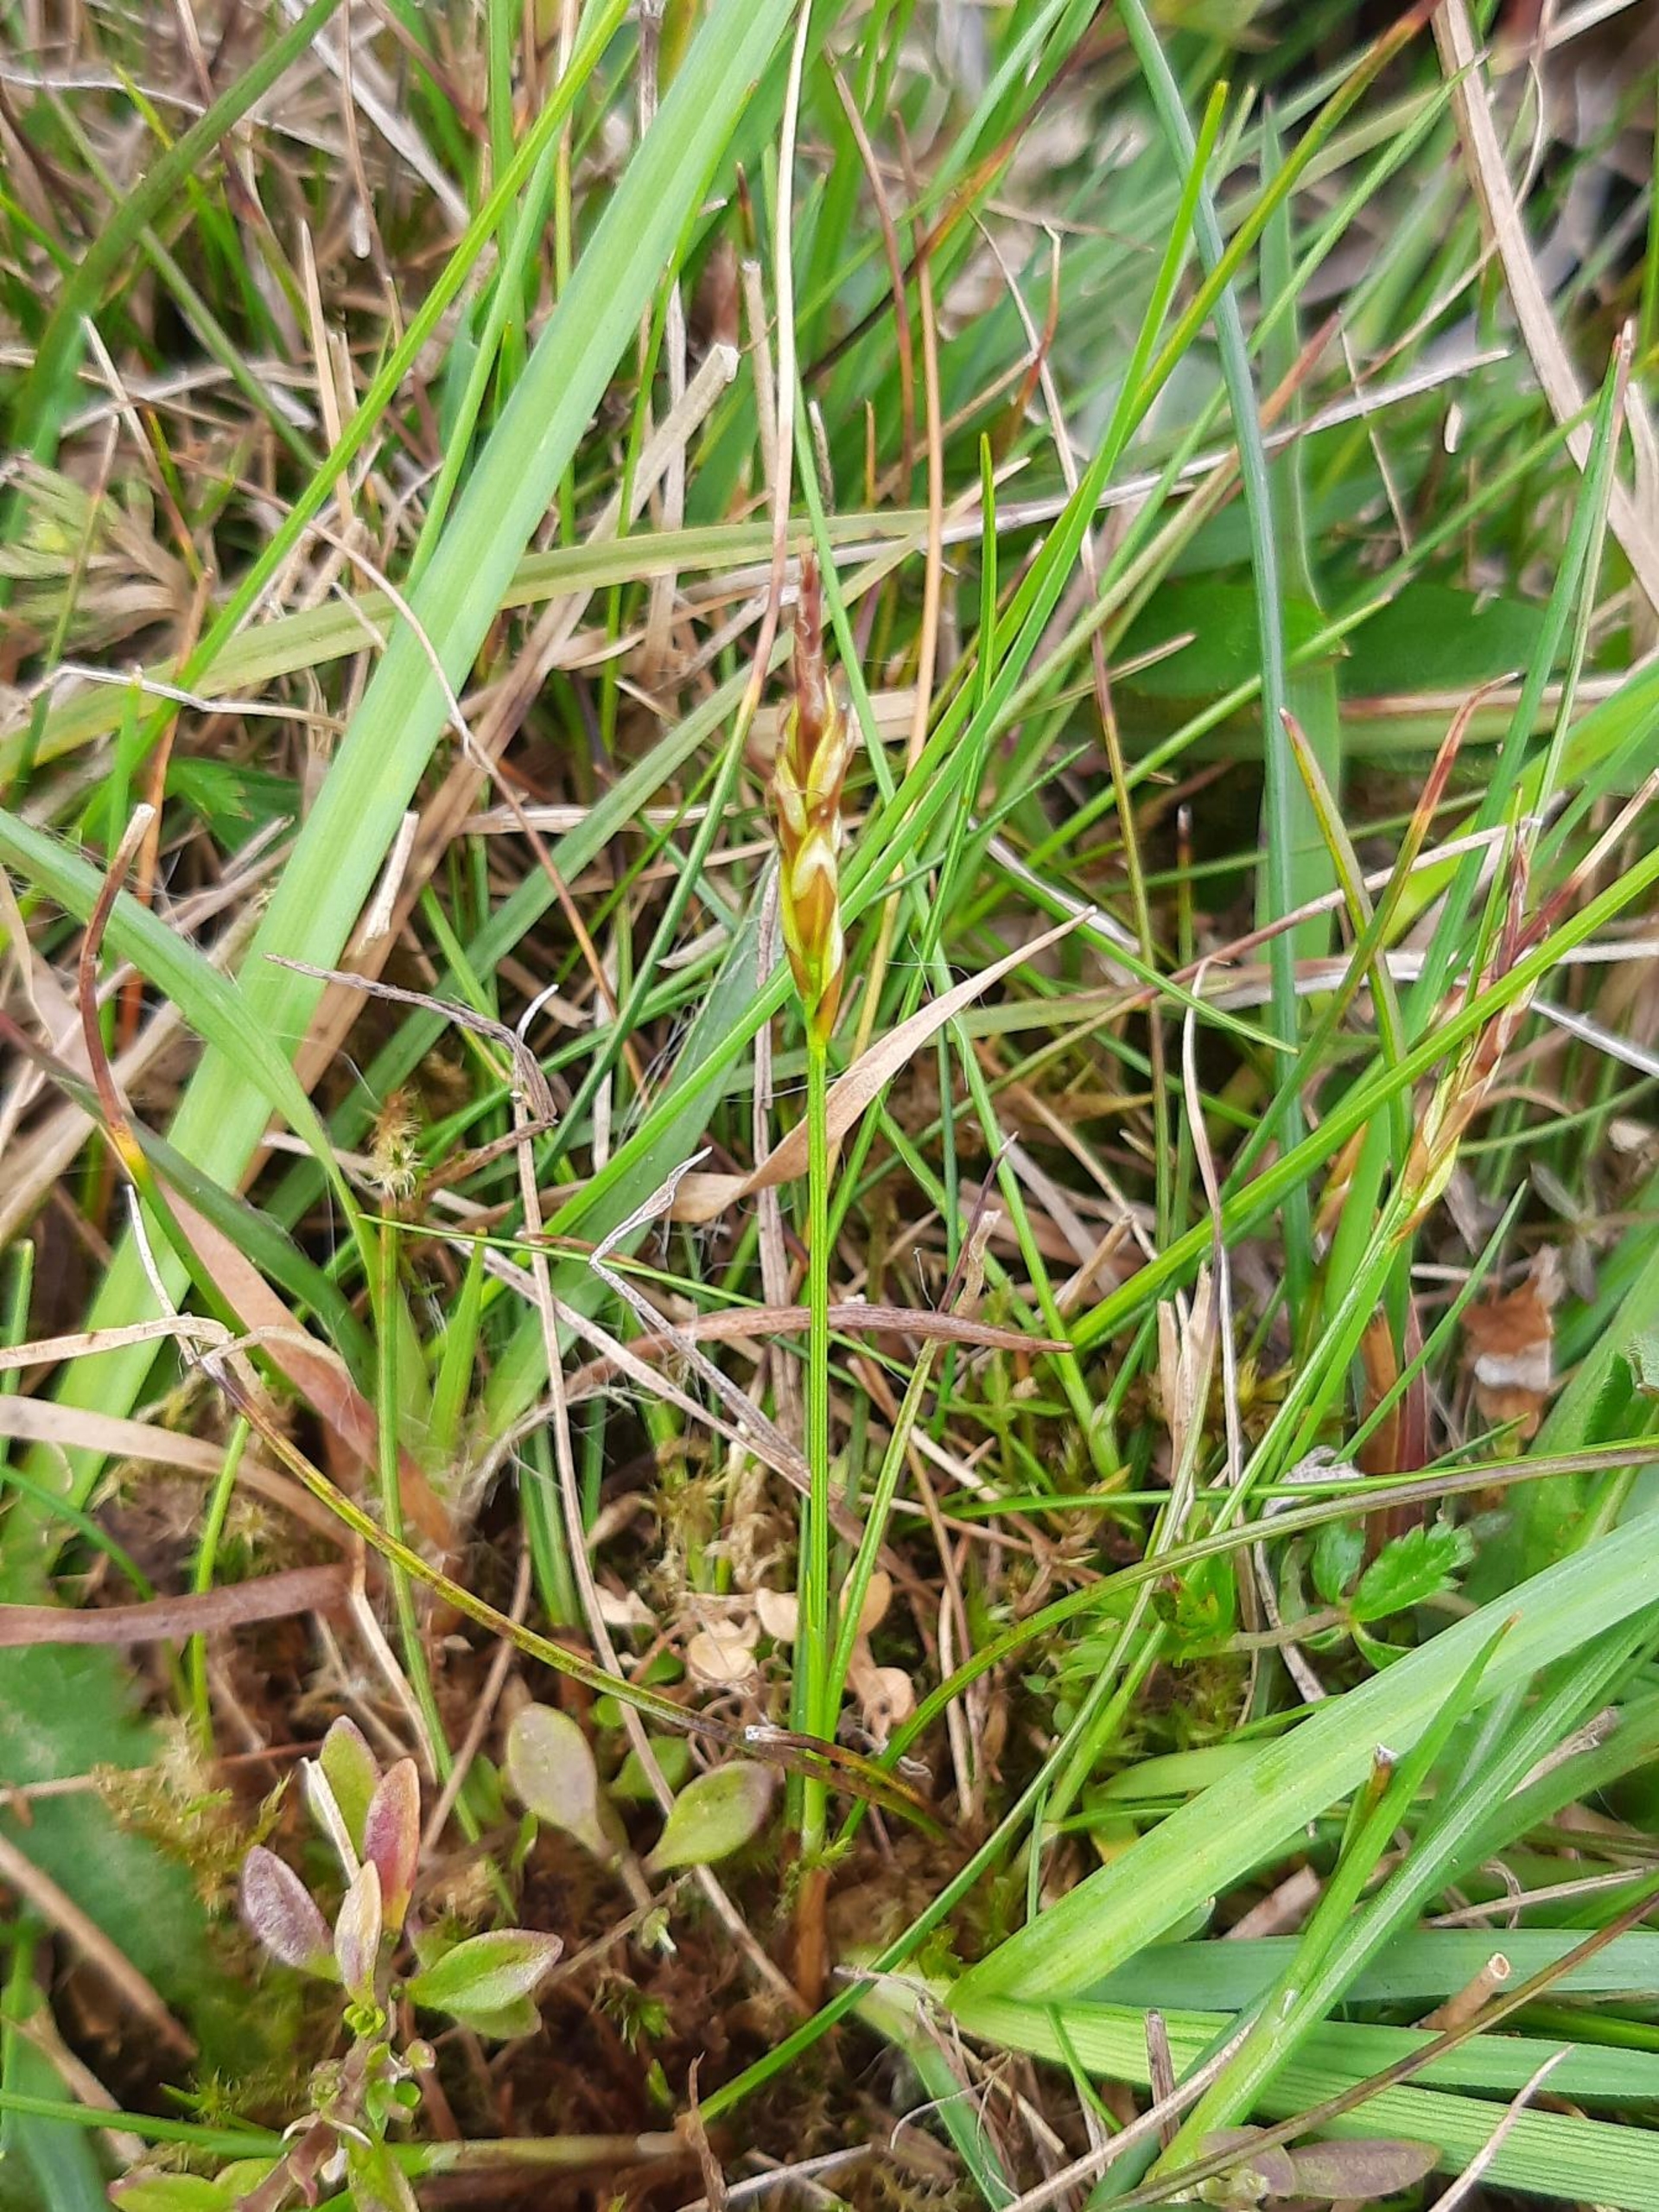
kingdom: Plantae
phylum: Tracheophyta
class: Liliopsida
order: Poales
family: Cyperaceae
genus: Carex
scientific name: Carex pulicaris
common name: Loppe-star
